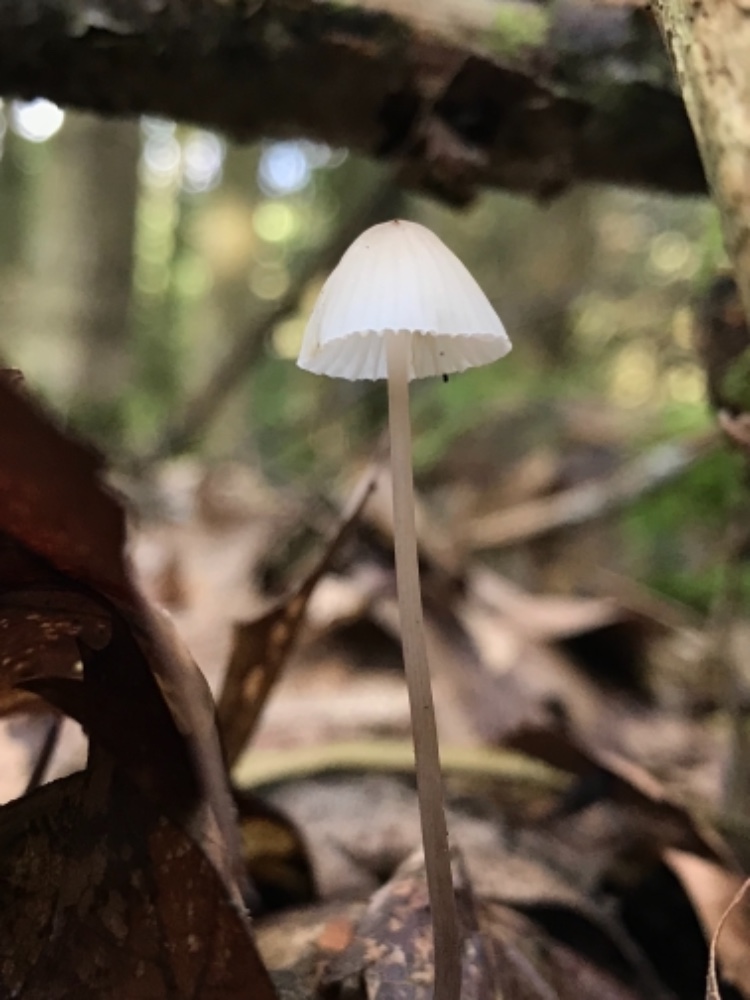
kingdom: Fungi
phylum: Basidiomycota
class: Agaricomycetes
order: Agaricales
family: Mycenaceae
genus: Mycena
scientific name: Mycena galopus
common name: hvidmælket huesvamp
